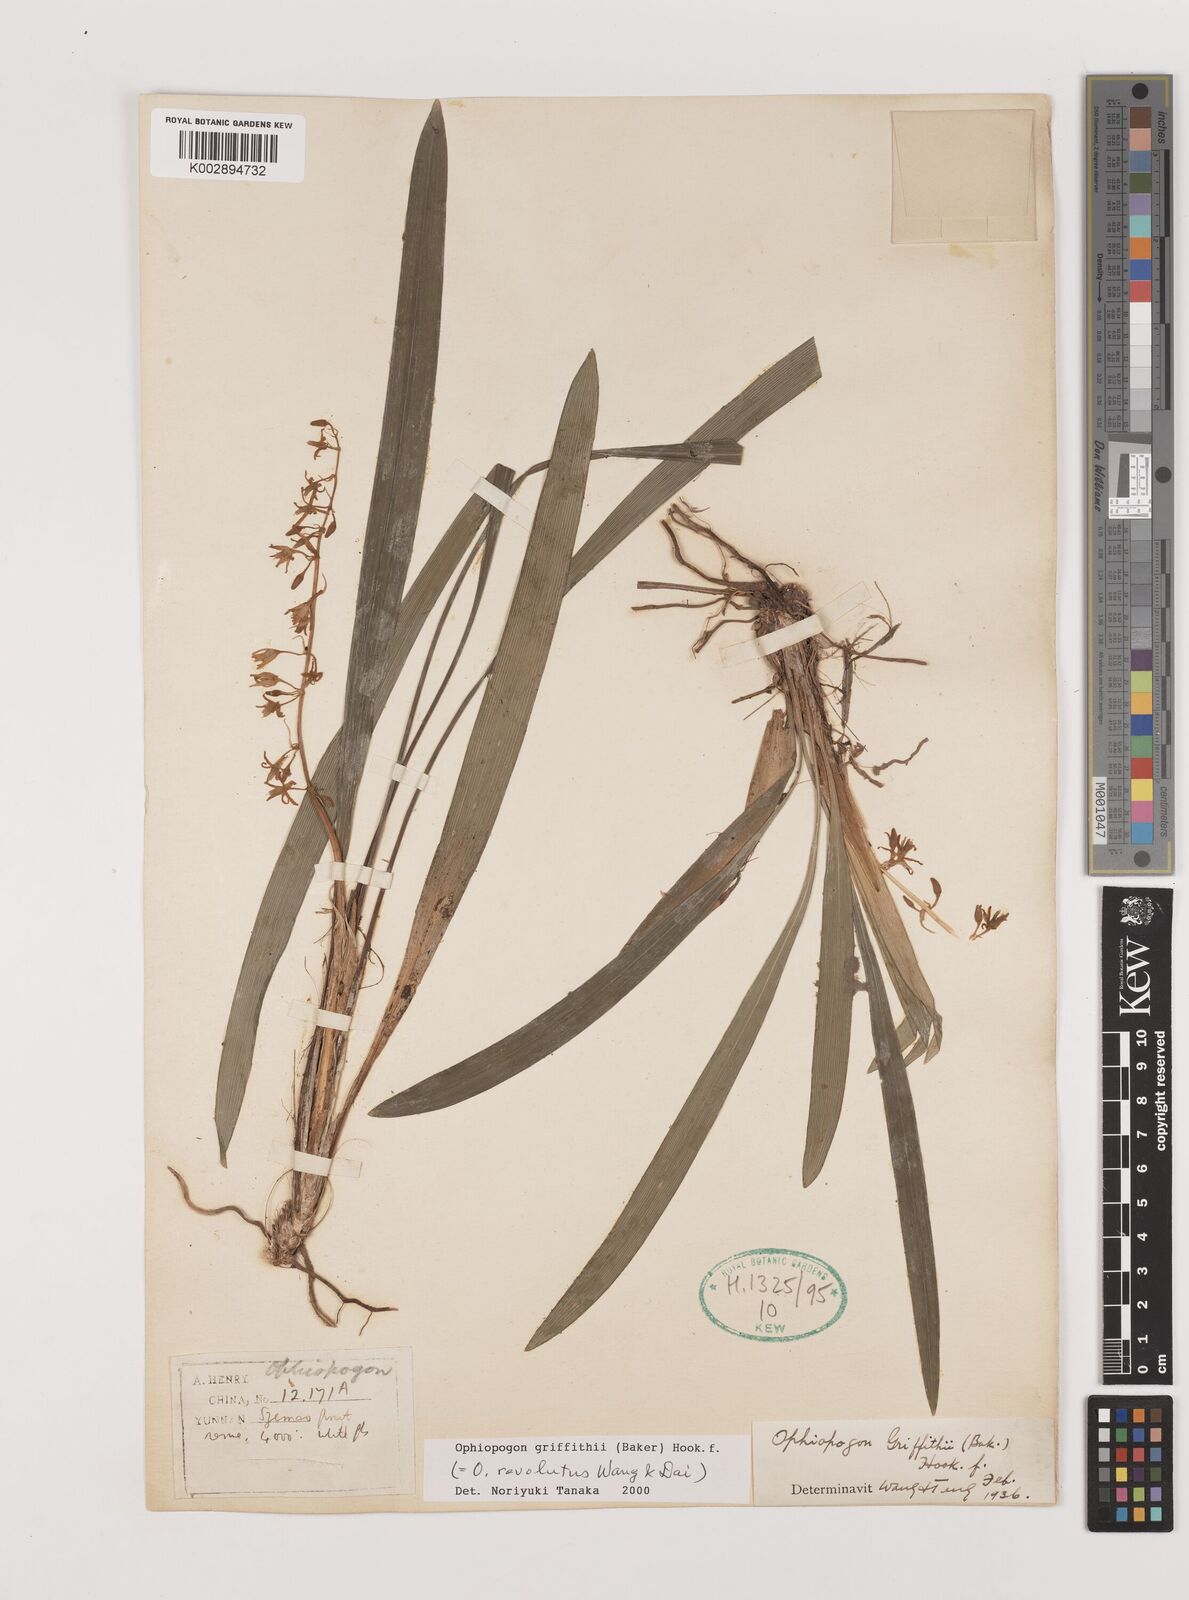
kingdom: Plantae
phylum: Tracheophyta
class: Liliopsida
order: Asparagales
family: Asparagaceae
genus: Ophiopogon
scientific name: Ophiopogon griffithii
